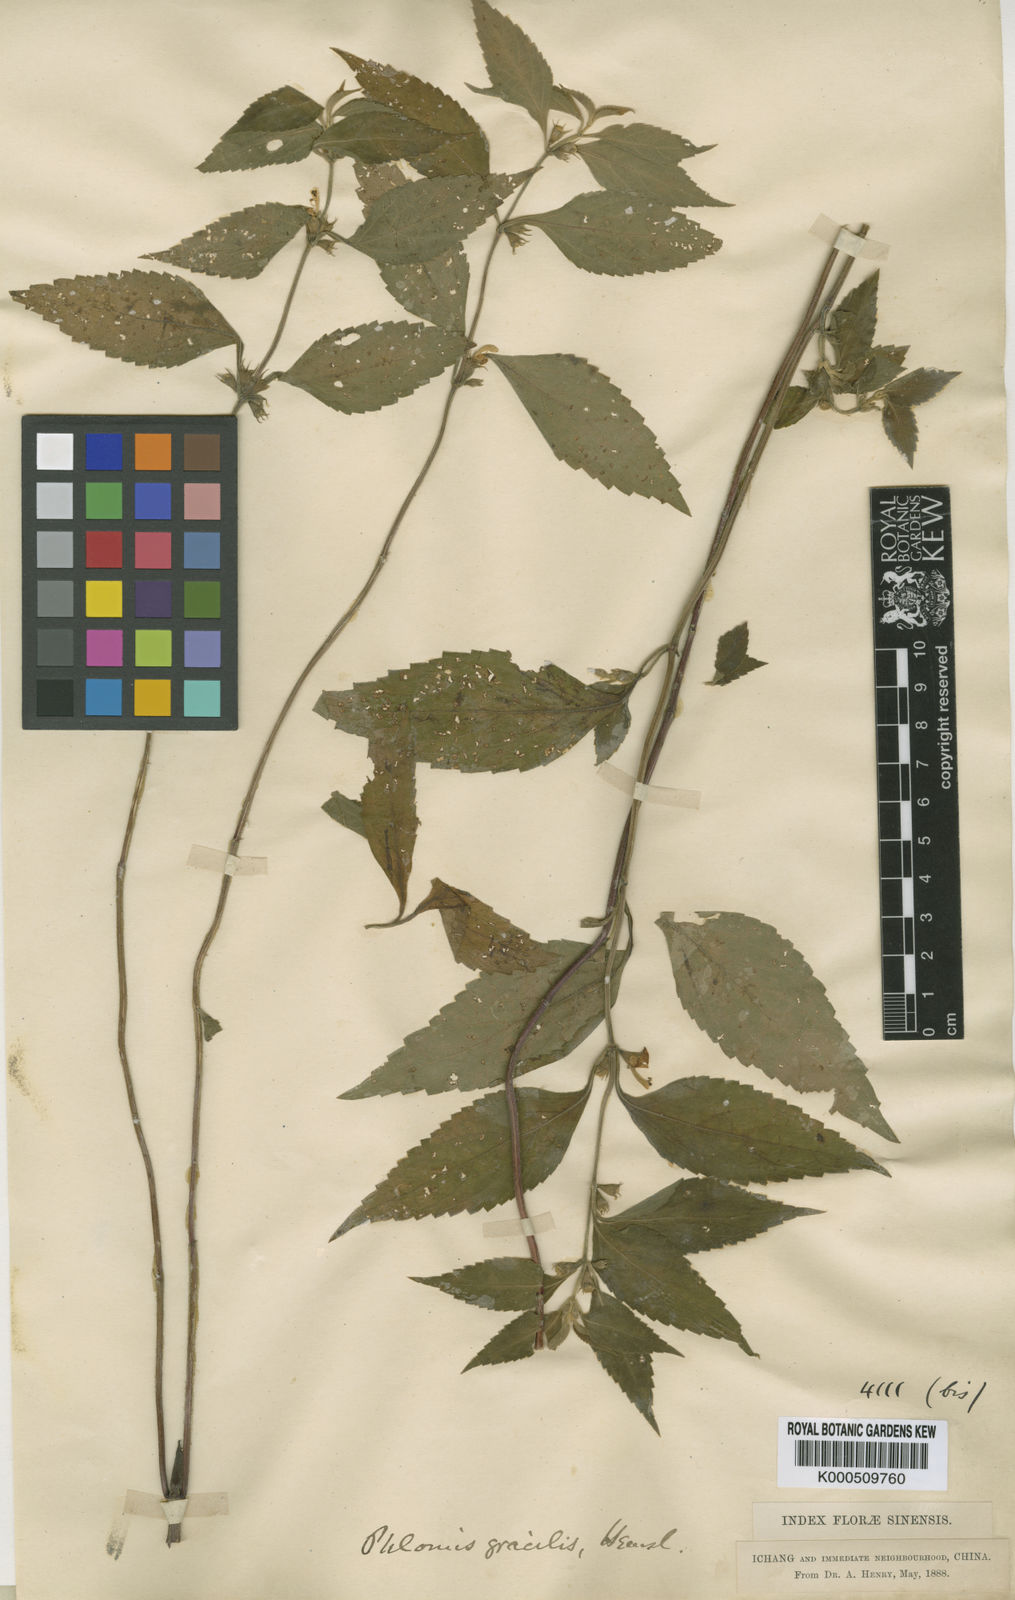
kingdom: Plantae
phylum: Tracheophyta
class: Magnoliopsida
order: Lamiales
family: Lamiaceae
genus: Paraphlomis
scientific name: Paraphlomis
